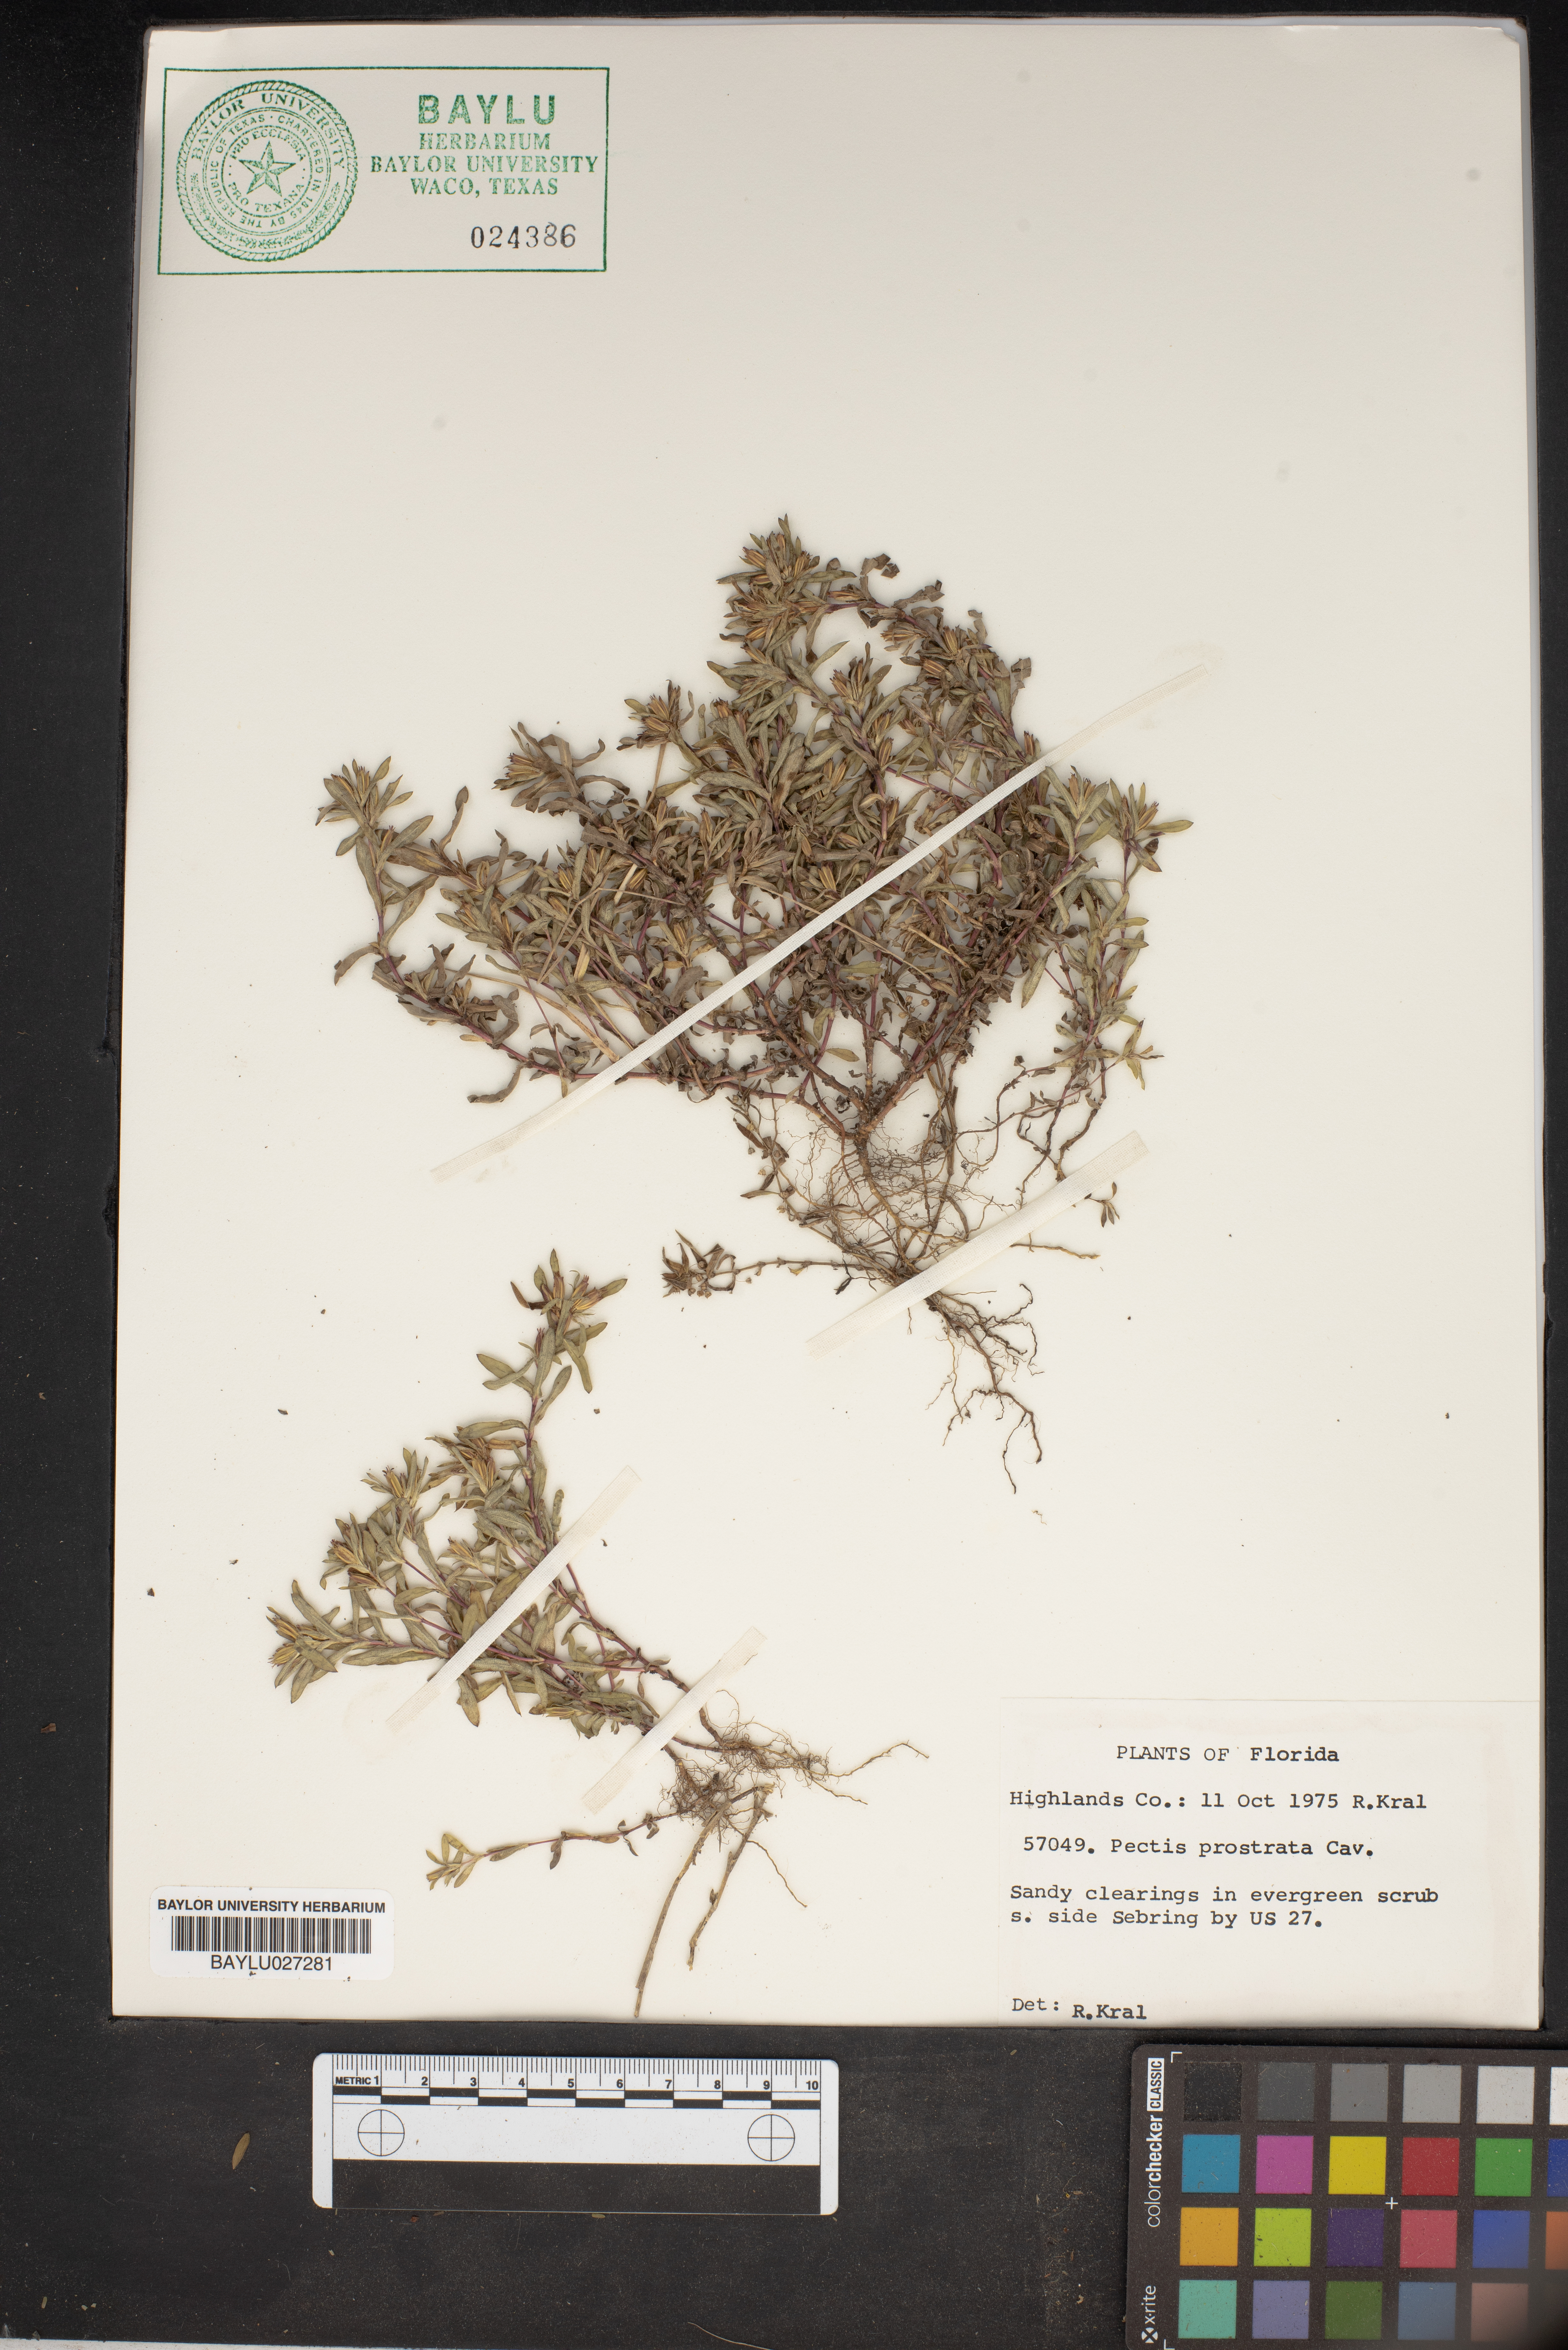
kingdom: Plantae
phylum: Tracheophyta
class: Magnoliopsida
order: Asterales
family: Asteraceae
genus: Pectis
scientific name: Pectis prostrata
